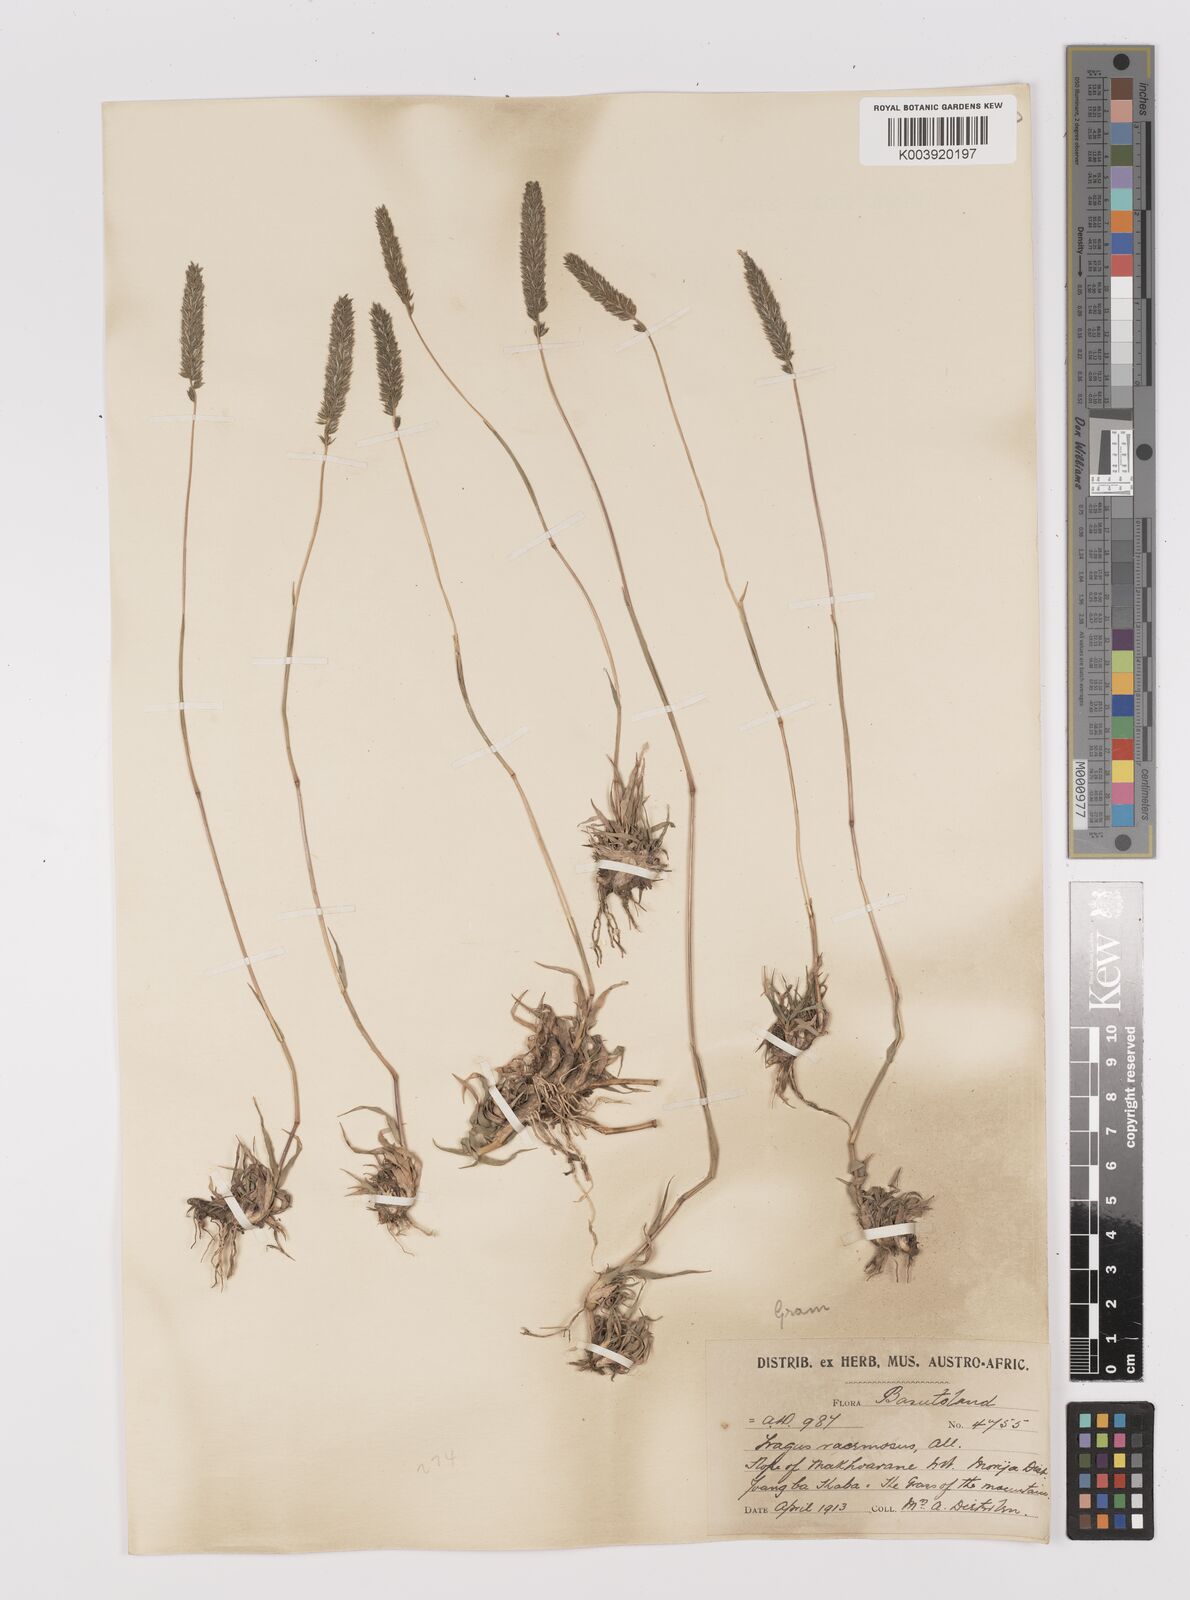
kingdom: Plantae
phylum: Tracheophyta
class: Liliopsida
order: Poales
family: Poaceae
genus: Tragus
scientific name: Tragus koelerioides
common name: Creeping carrot-seed grass
